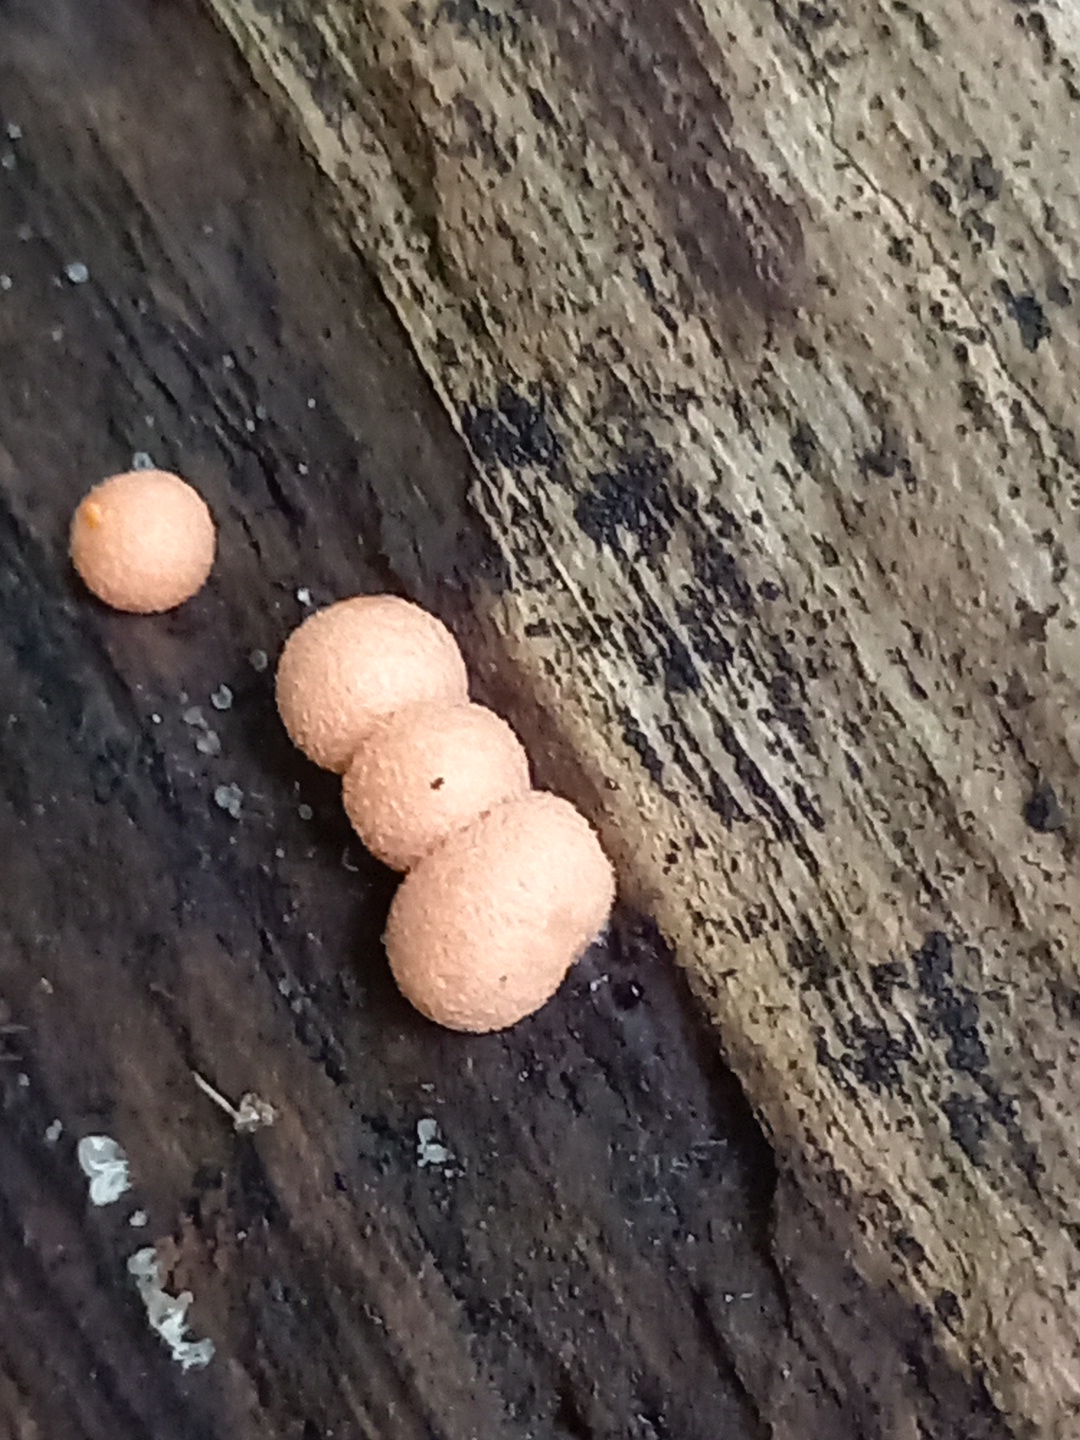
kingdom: Protozoa
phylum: Mycetozoa
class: Myxomycetes
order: Cribrariales
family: Tubiferaceae
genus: Lycogala
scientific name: Lycogala epidendrum
